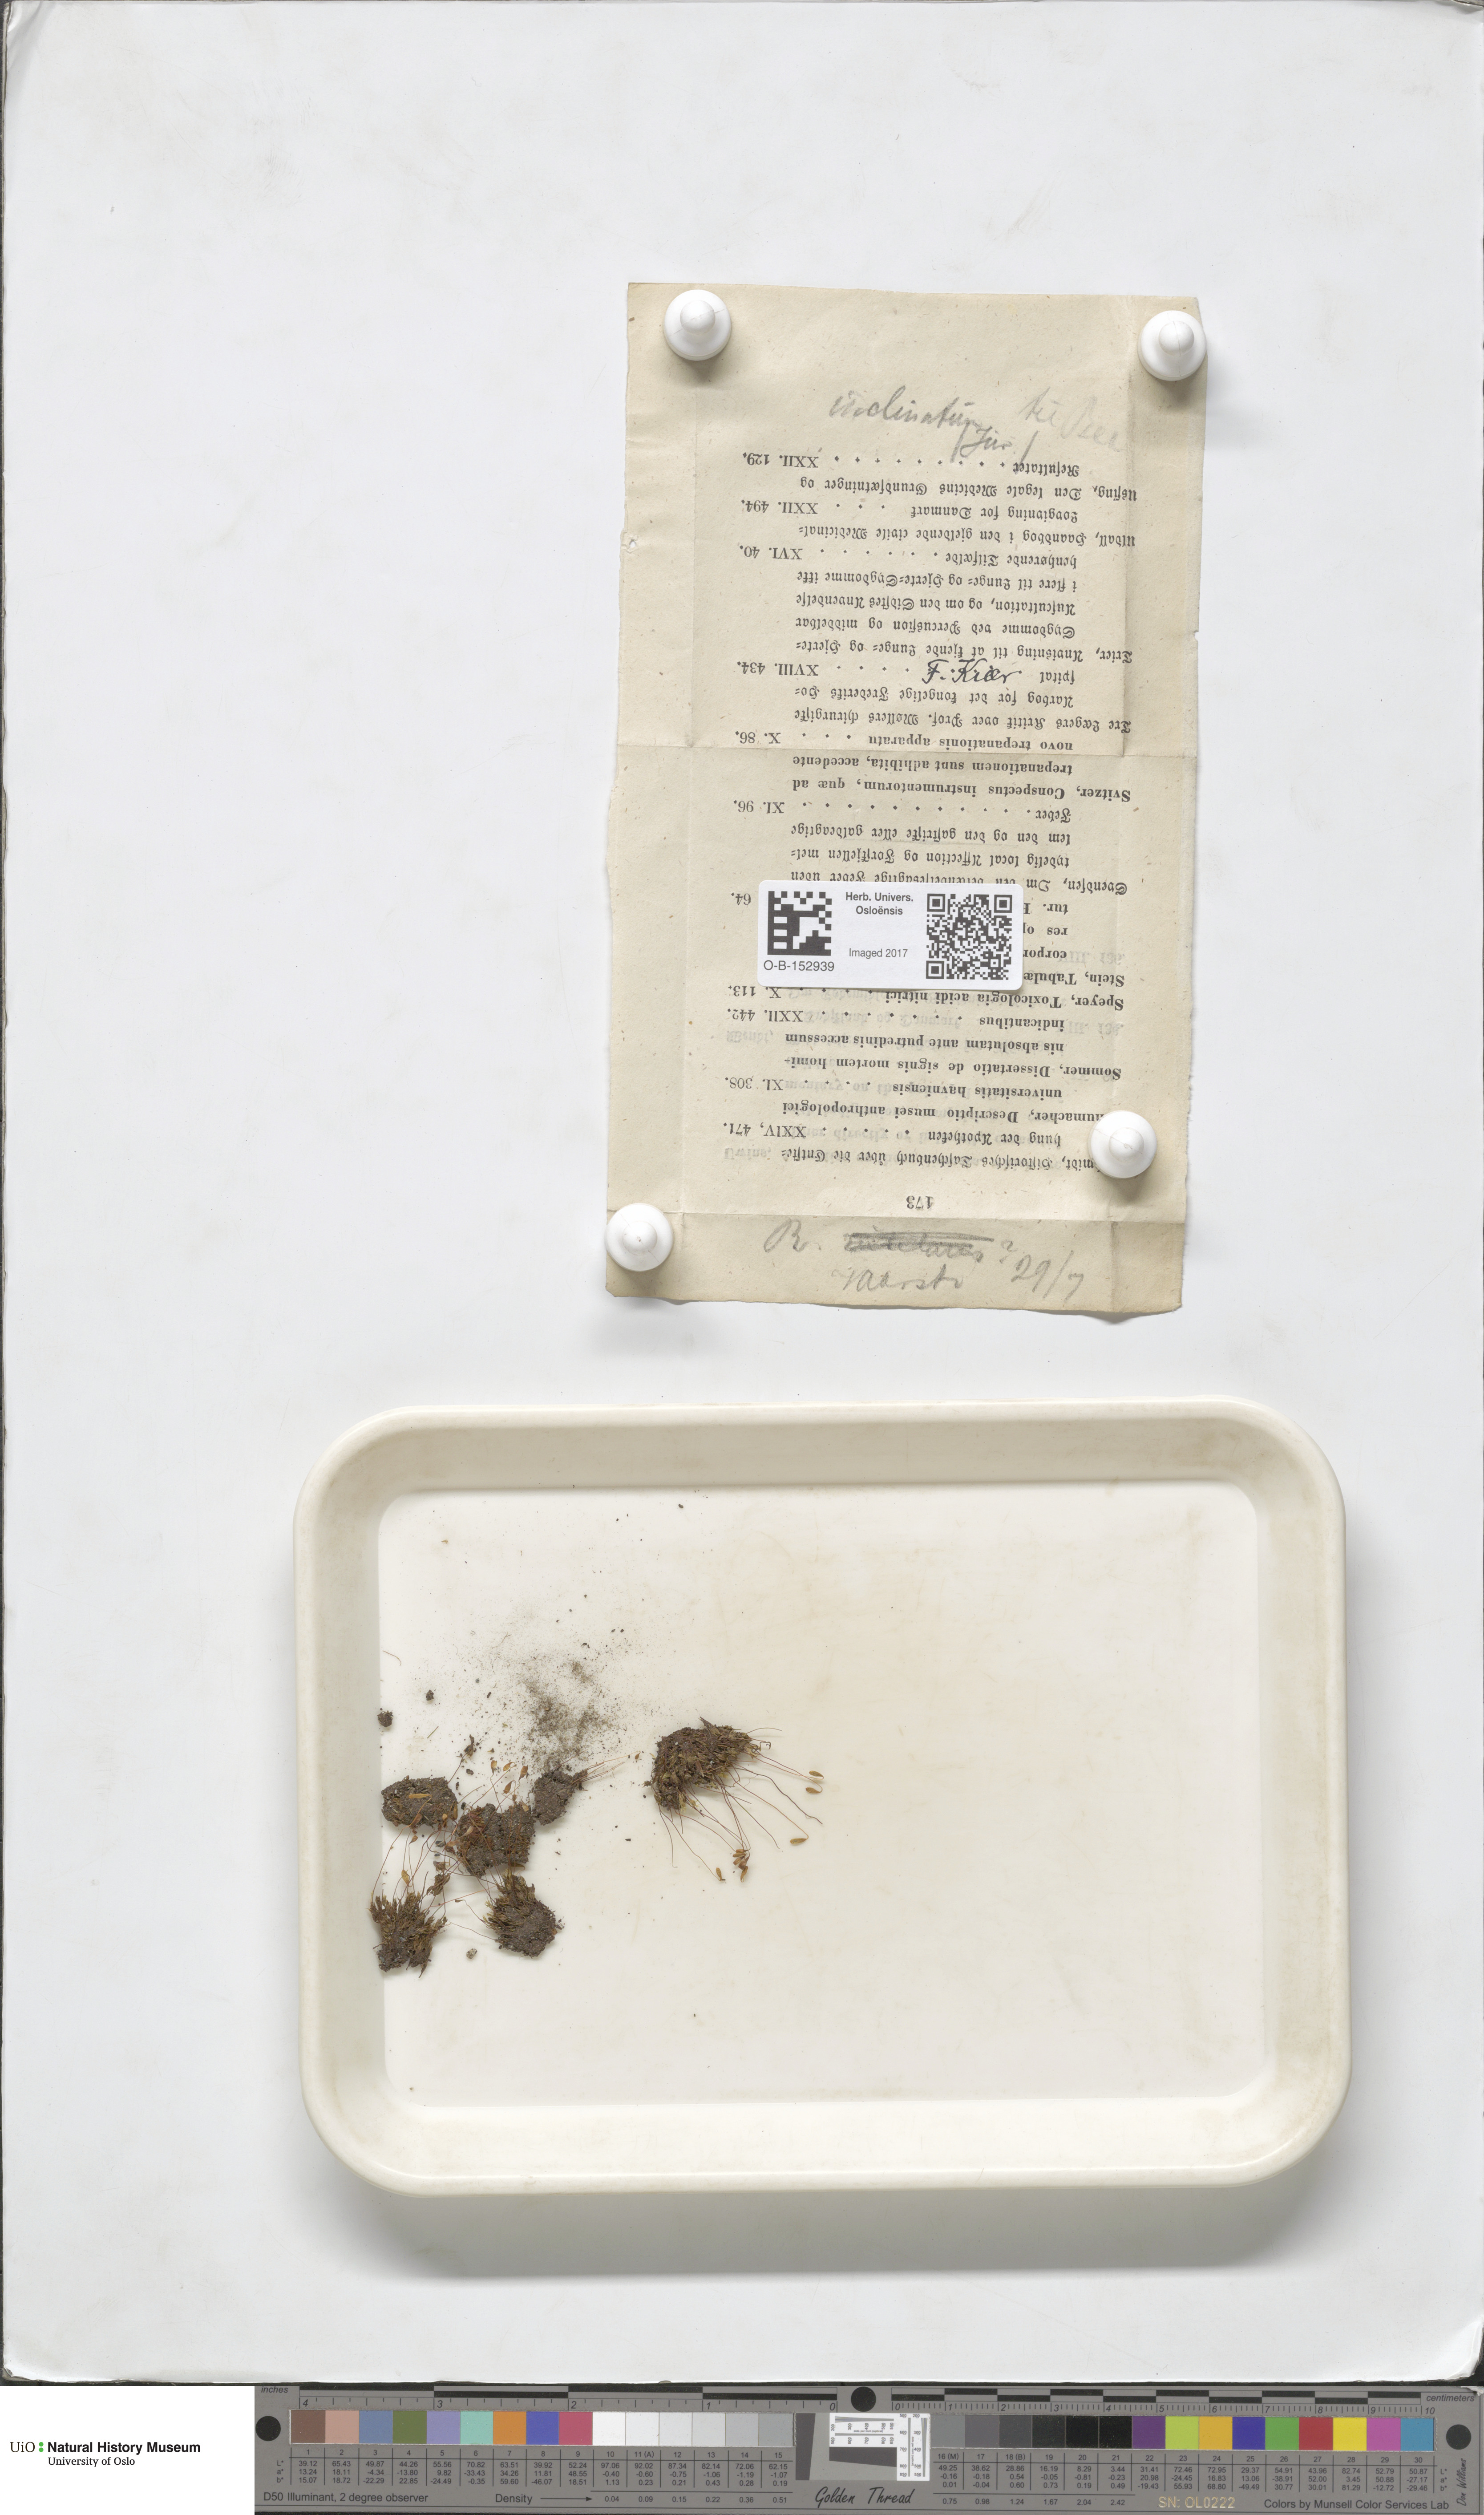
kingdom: Plantae
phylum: Bryophyta
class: Bryopsida
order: Bryales
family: Bryaceae
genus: Ptychostomum
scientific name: Ptychostomum inclinatum
